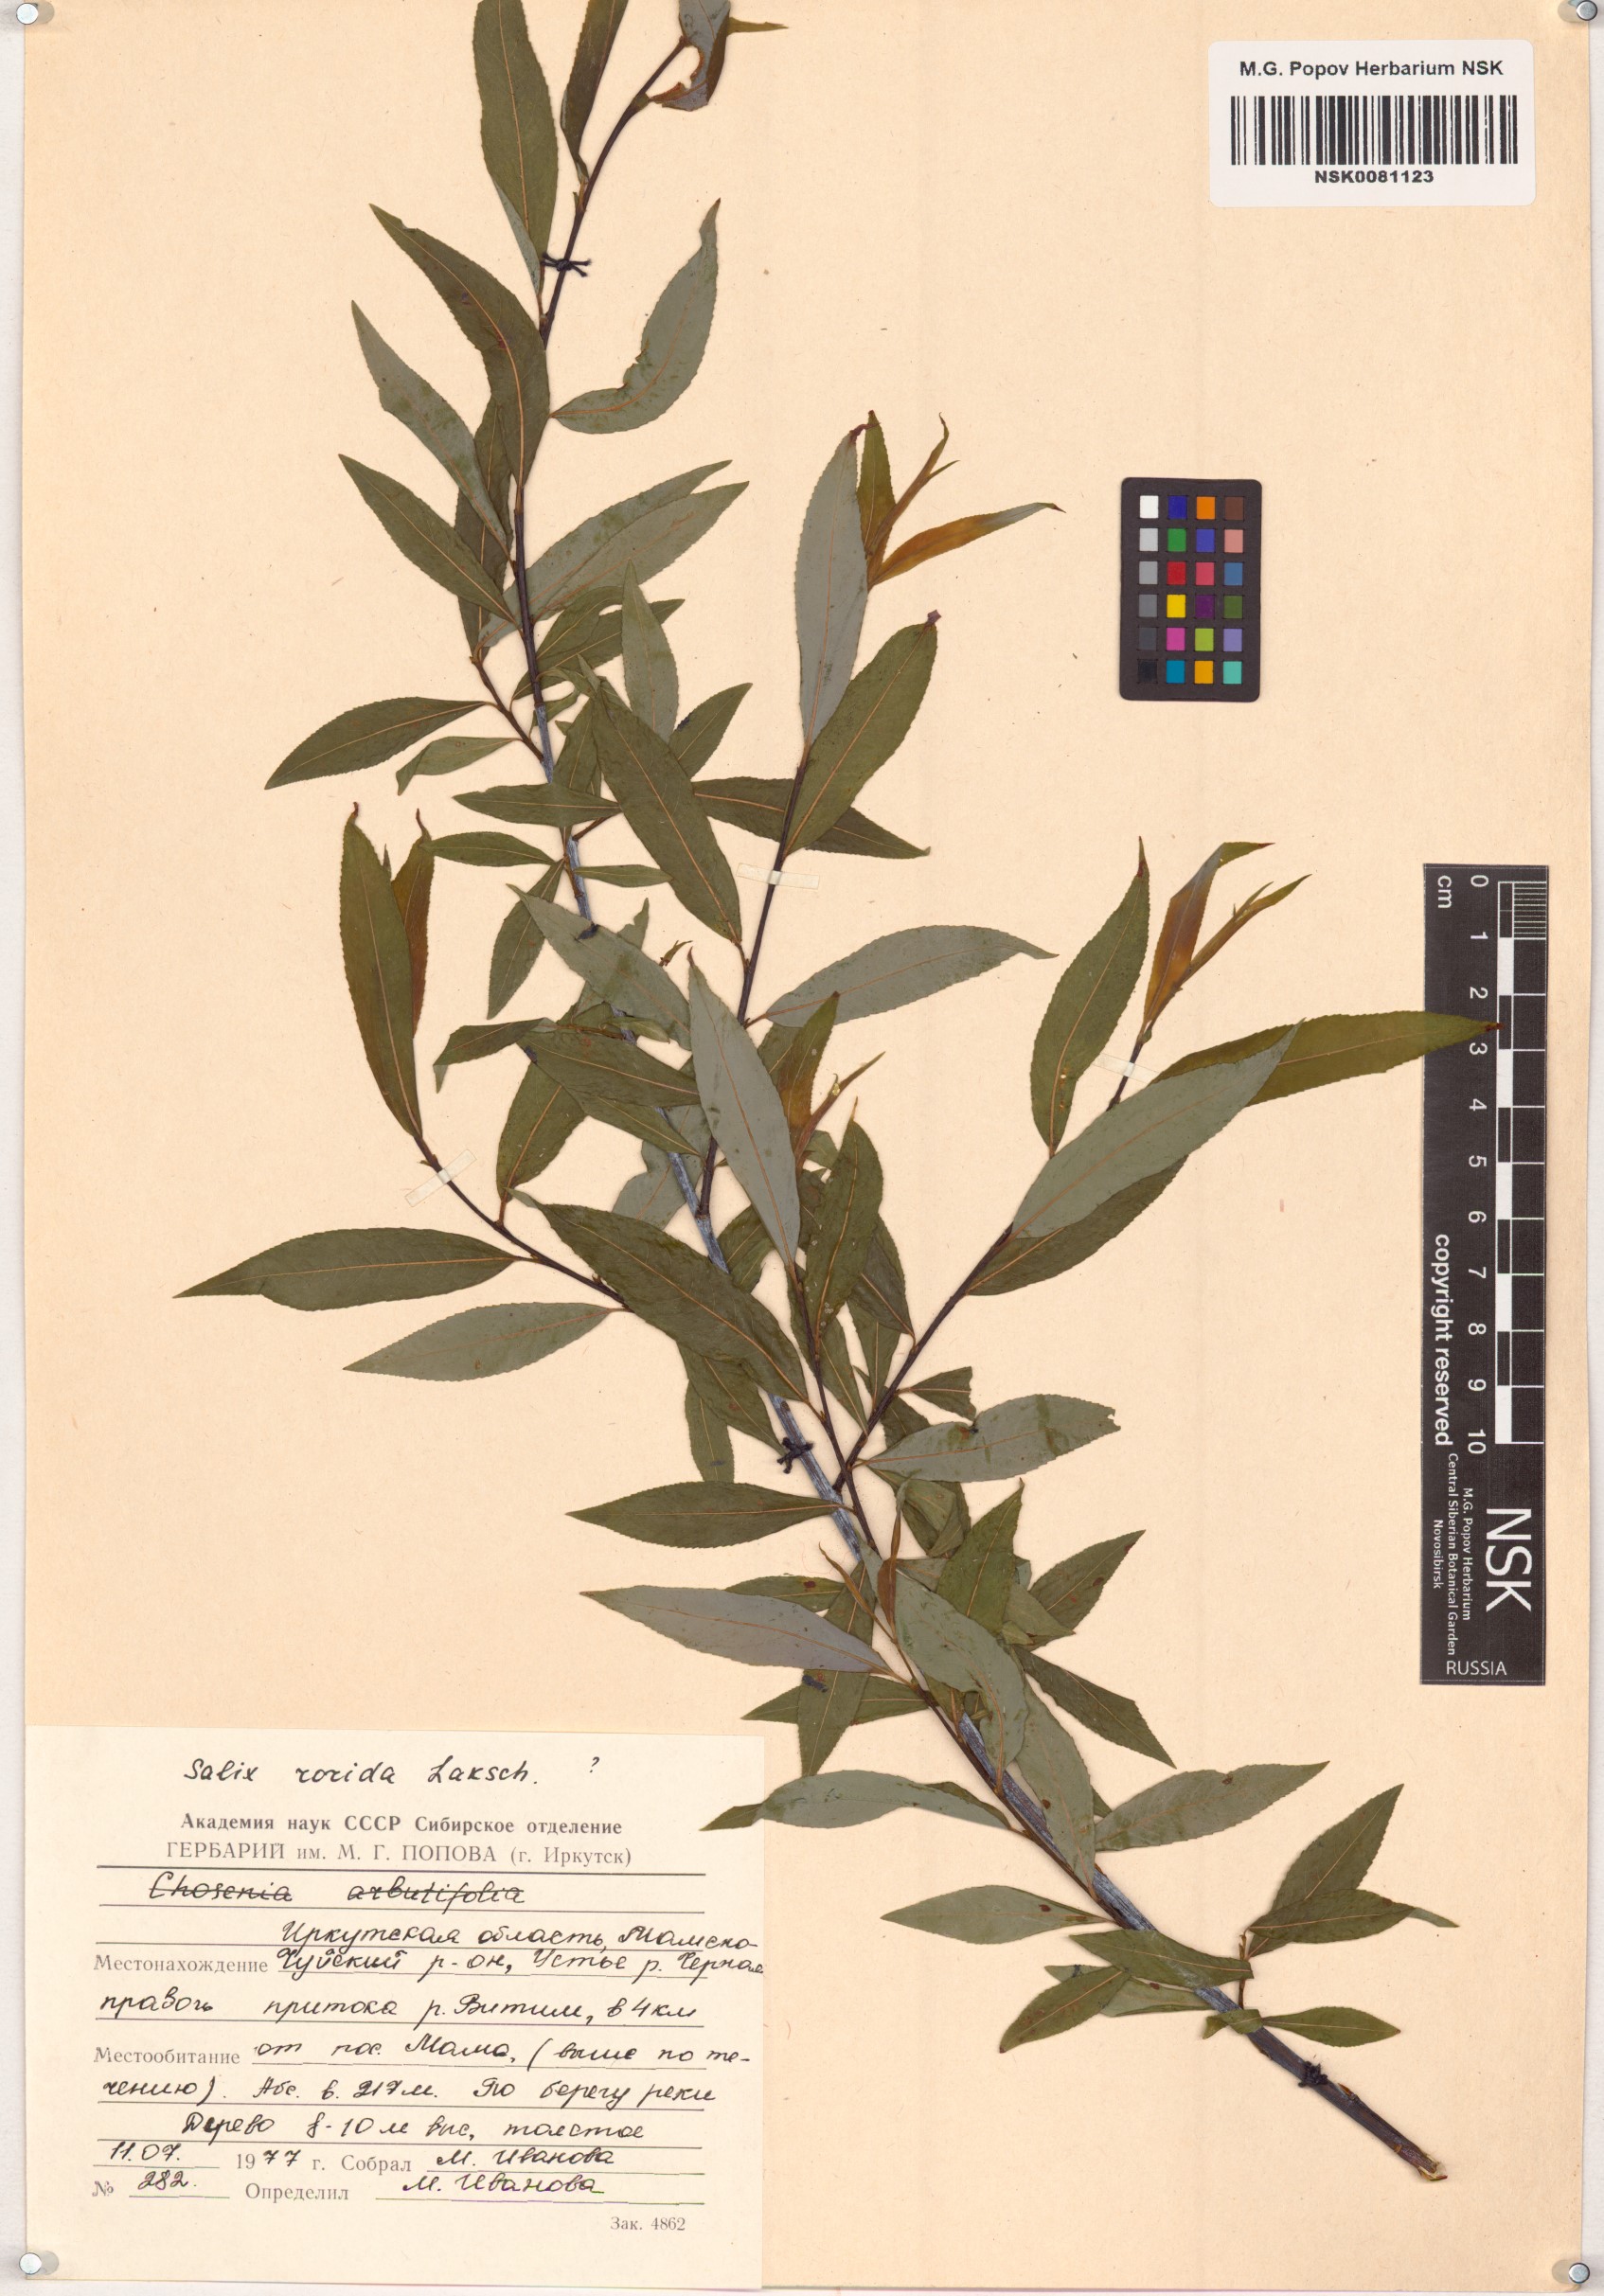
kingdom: Plantae
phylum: Tracheophyta
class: Magnoliopsida
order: Malpighiales
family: Salicaceae
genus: Salix
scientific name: Salix rorida
